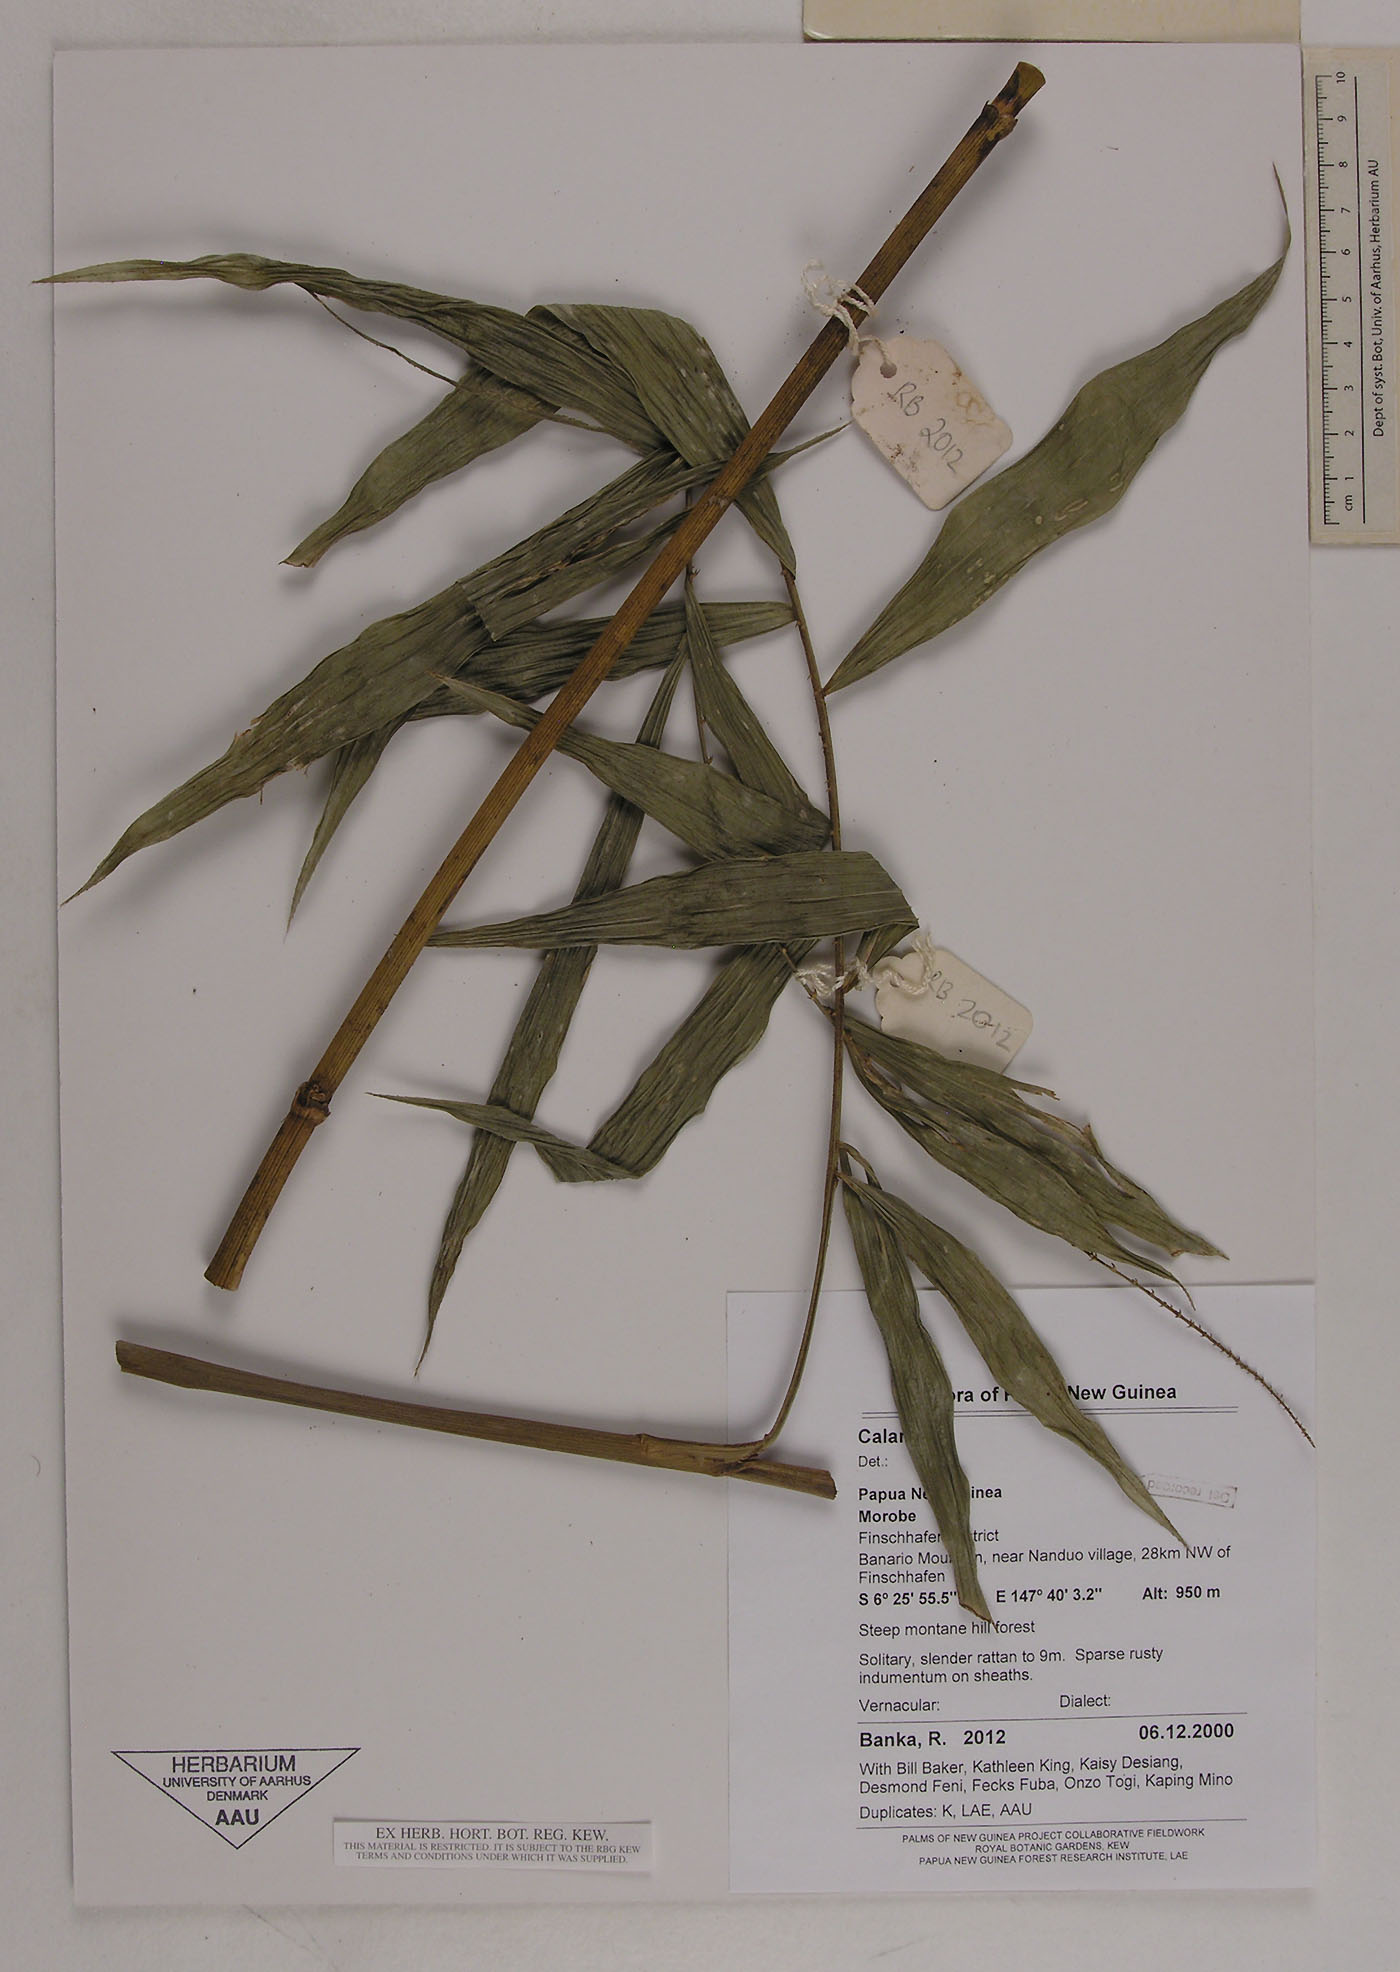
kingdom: Plantae
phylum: Tracheophyta
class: Liliopsida
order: Arecales
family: Arecaceae
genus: Calamus
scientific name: Calamus vitiensis
